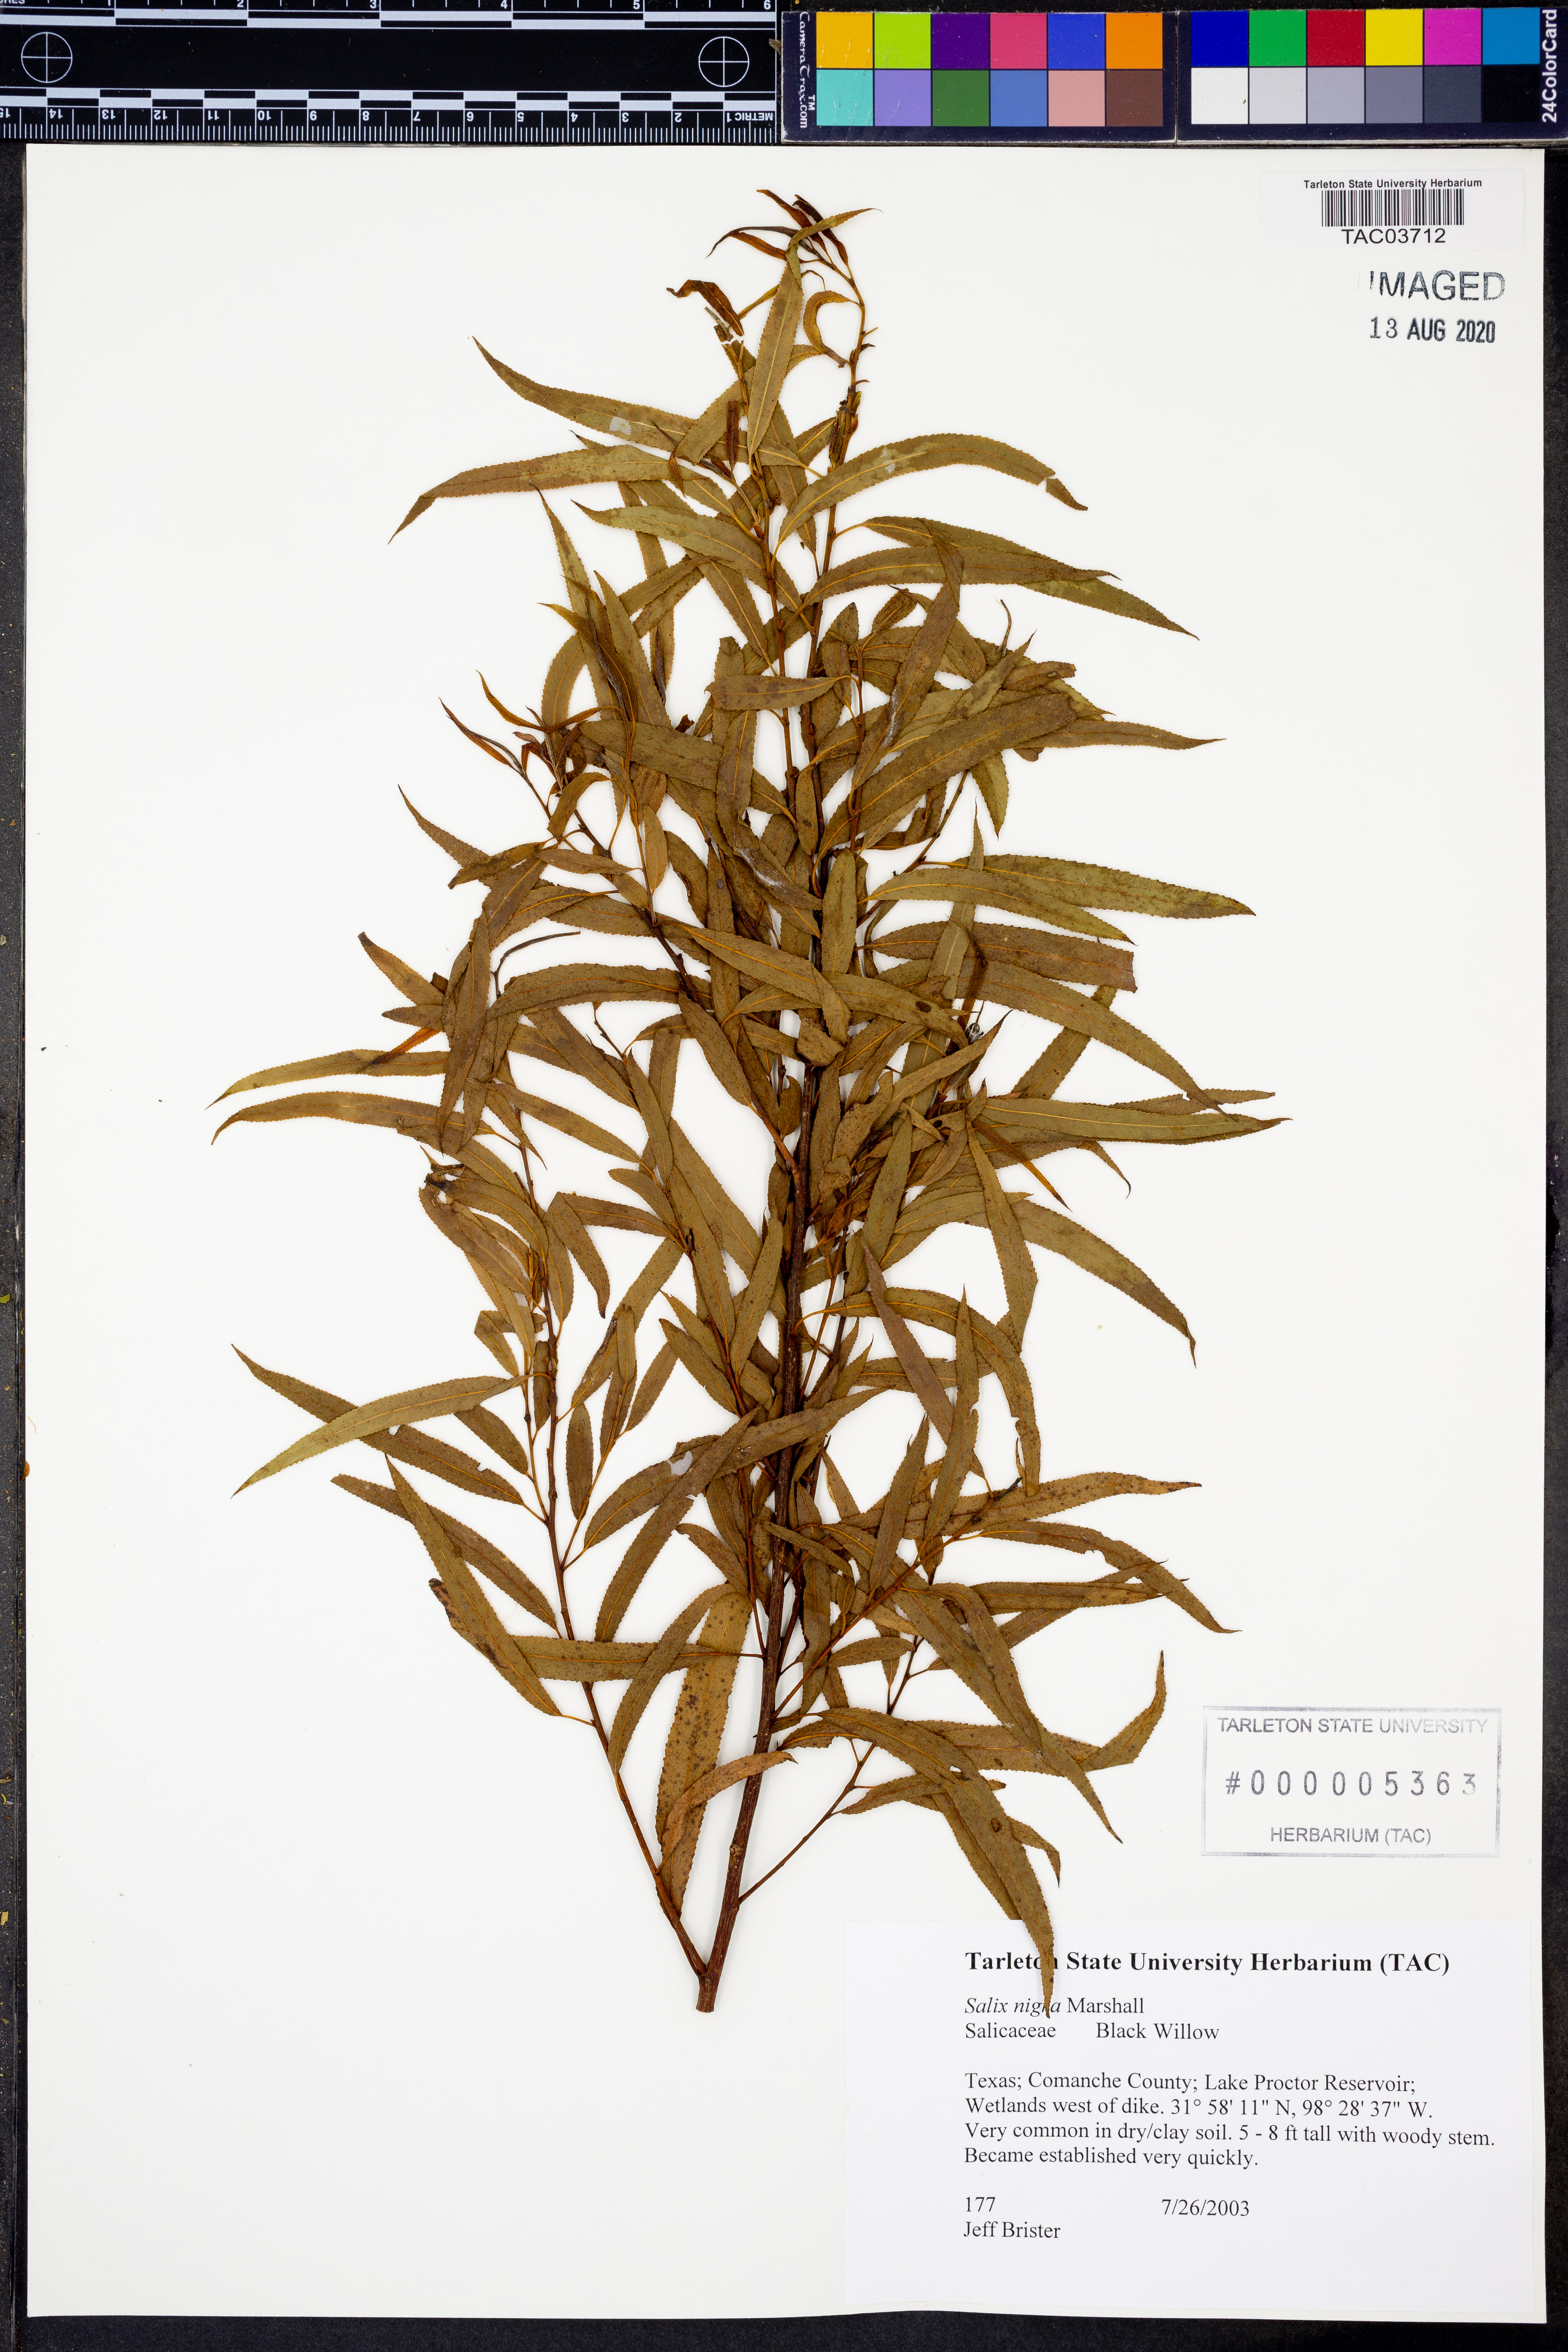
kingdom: Plantae
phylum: Tracheophyta
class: Magnoliopsida
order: Malpighiales
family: Salicaceae
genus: Salix
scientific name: Salix nigra
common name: Black willow
